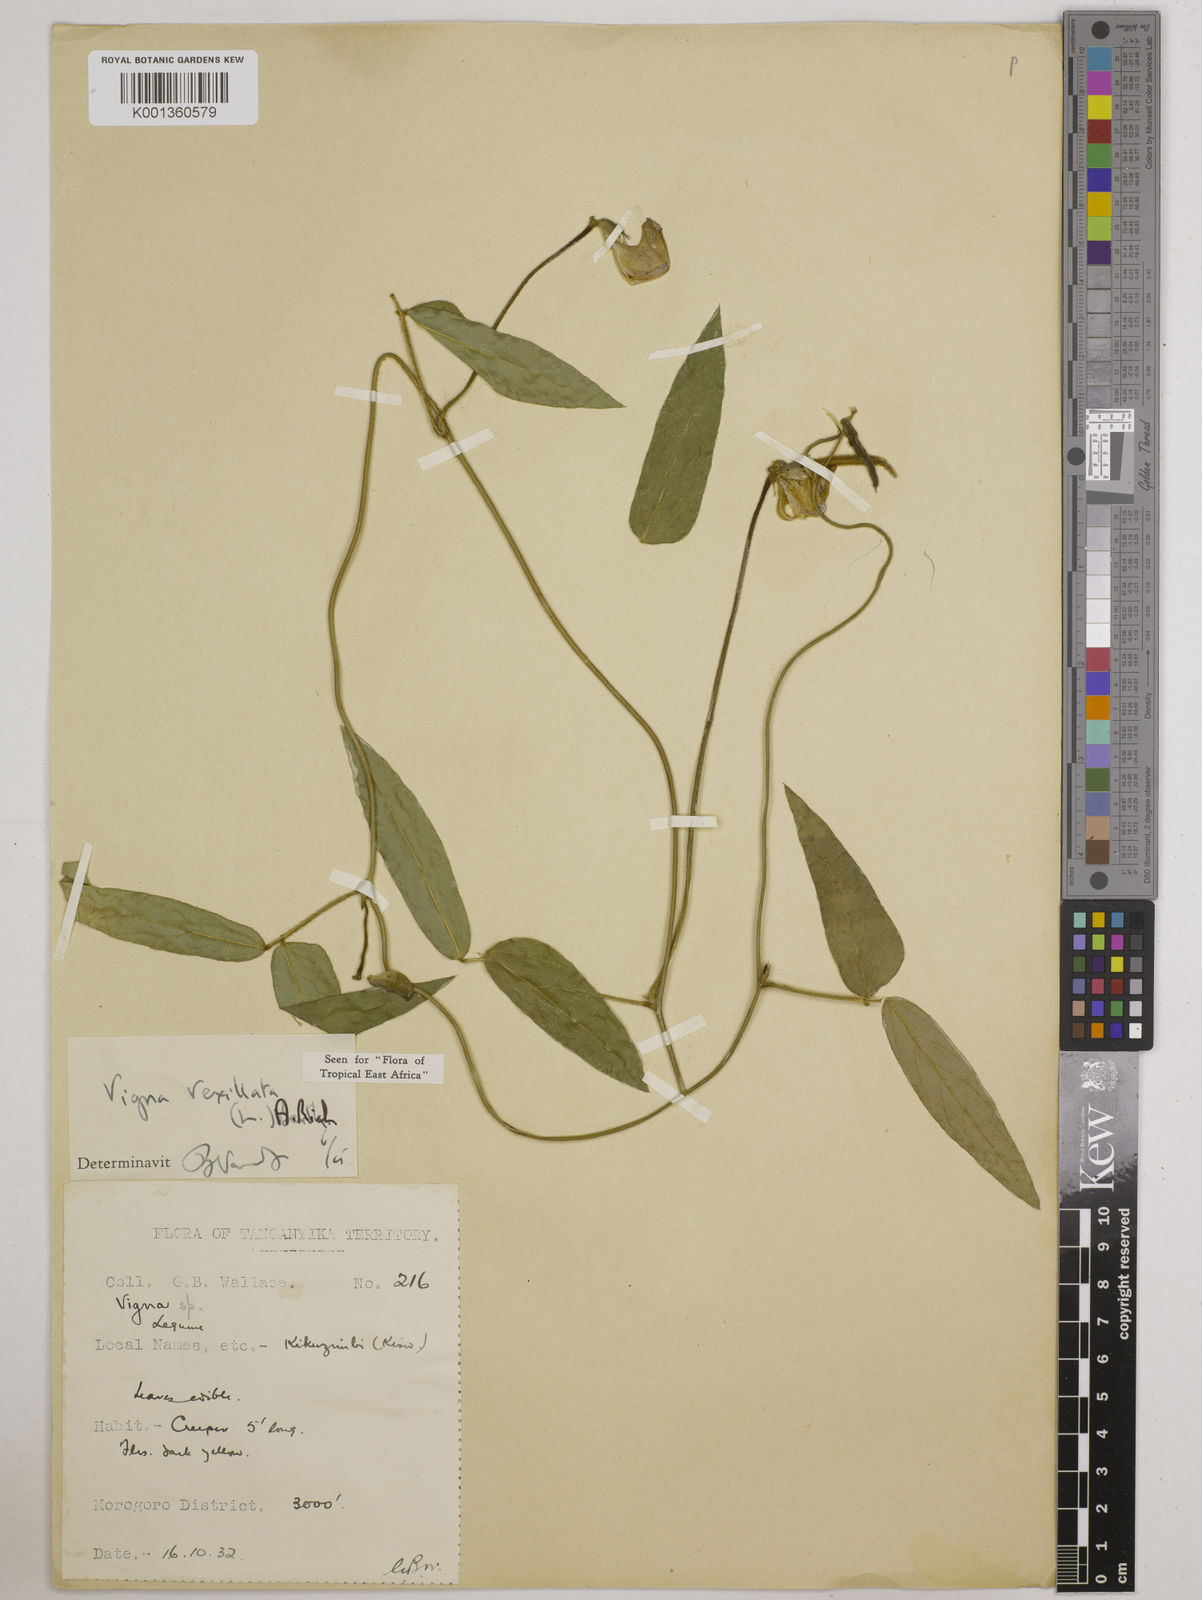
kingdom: Plantae
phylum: Tracheophyta
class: Magnoliopsida
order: Fabales
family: Fabaceae
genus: Vigna
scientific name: Vigna vexillata
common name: Zombi pea
